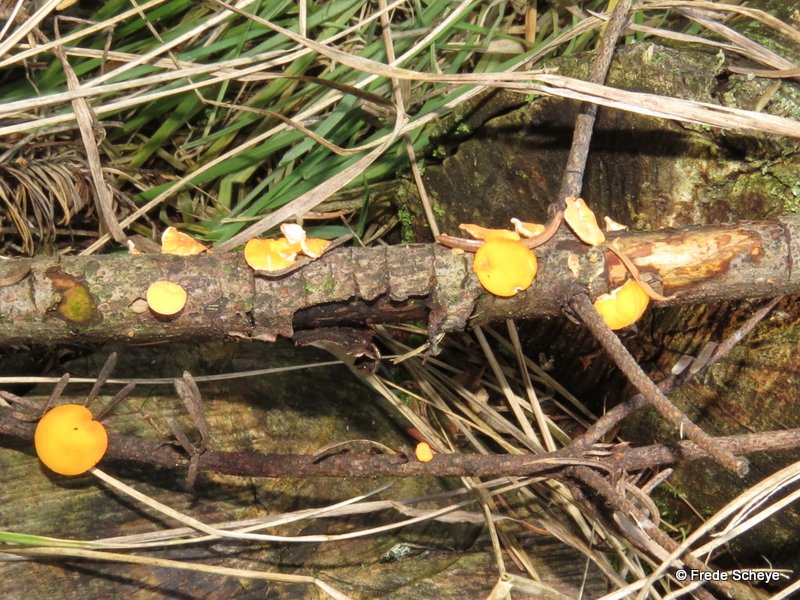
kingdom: Fungi
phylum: Ascomycota
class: Pezizomycetes
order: Pezizales
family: Sarcoscyphaceae
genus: Pithya
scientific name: Pithya vulgaris
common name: stor dukatbæger
